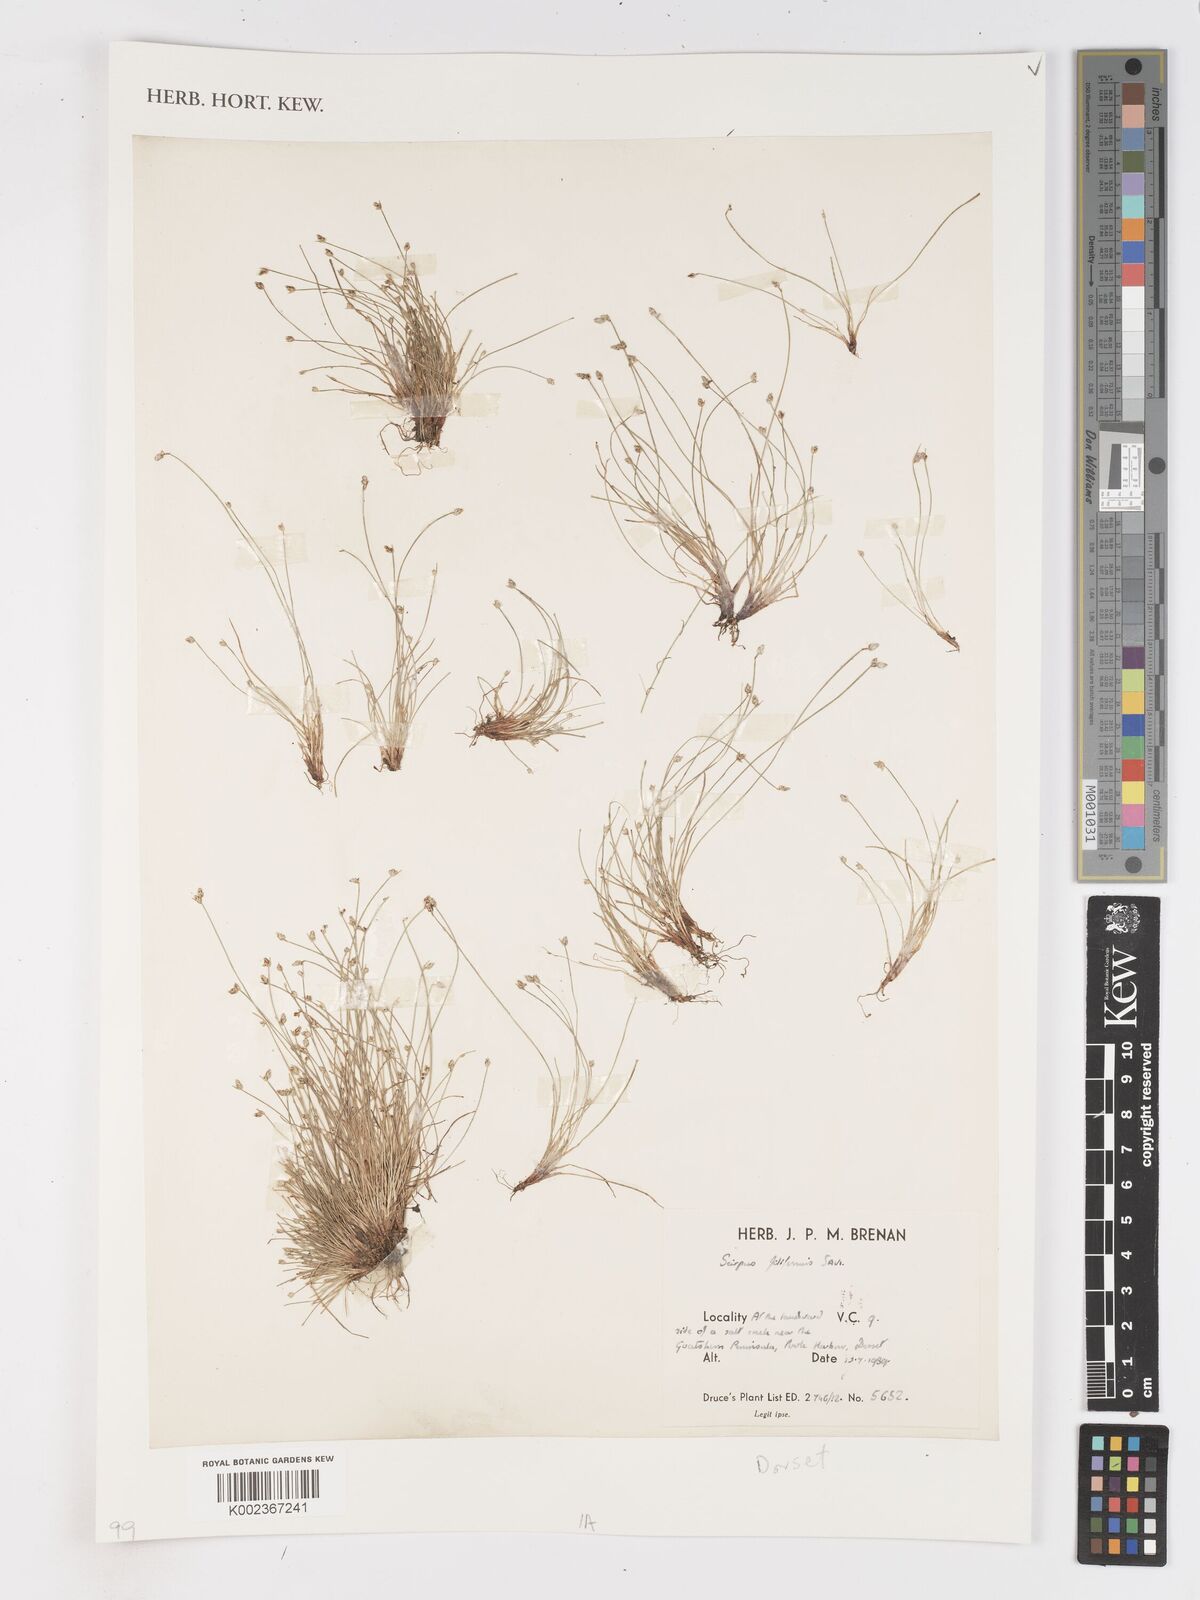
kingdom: Plantae
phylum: Tracheophyta
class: Liliopsida
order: Poales
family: Cyperaceae
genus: Isolepis
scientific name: Isolepis cernua
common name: Slender club-rush
